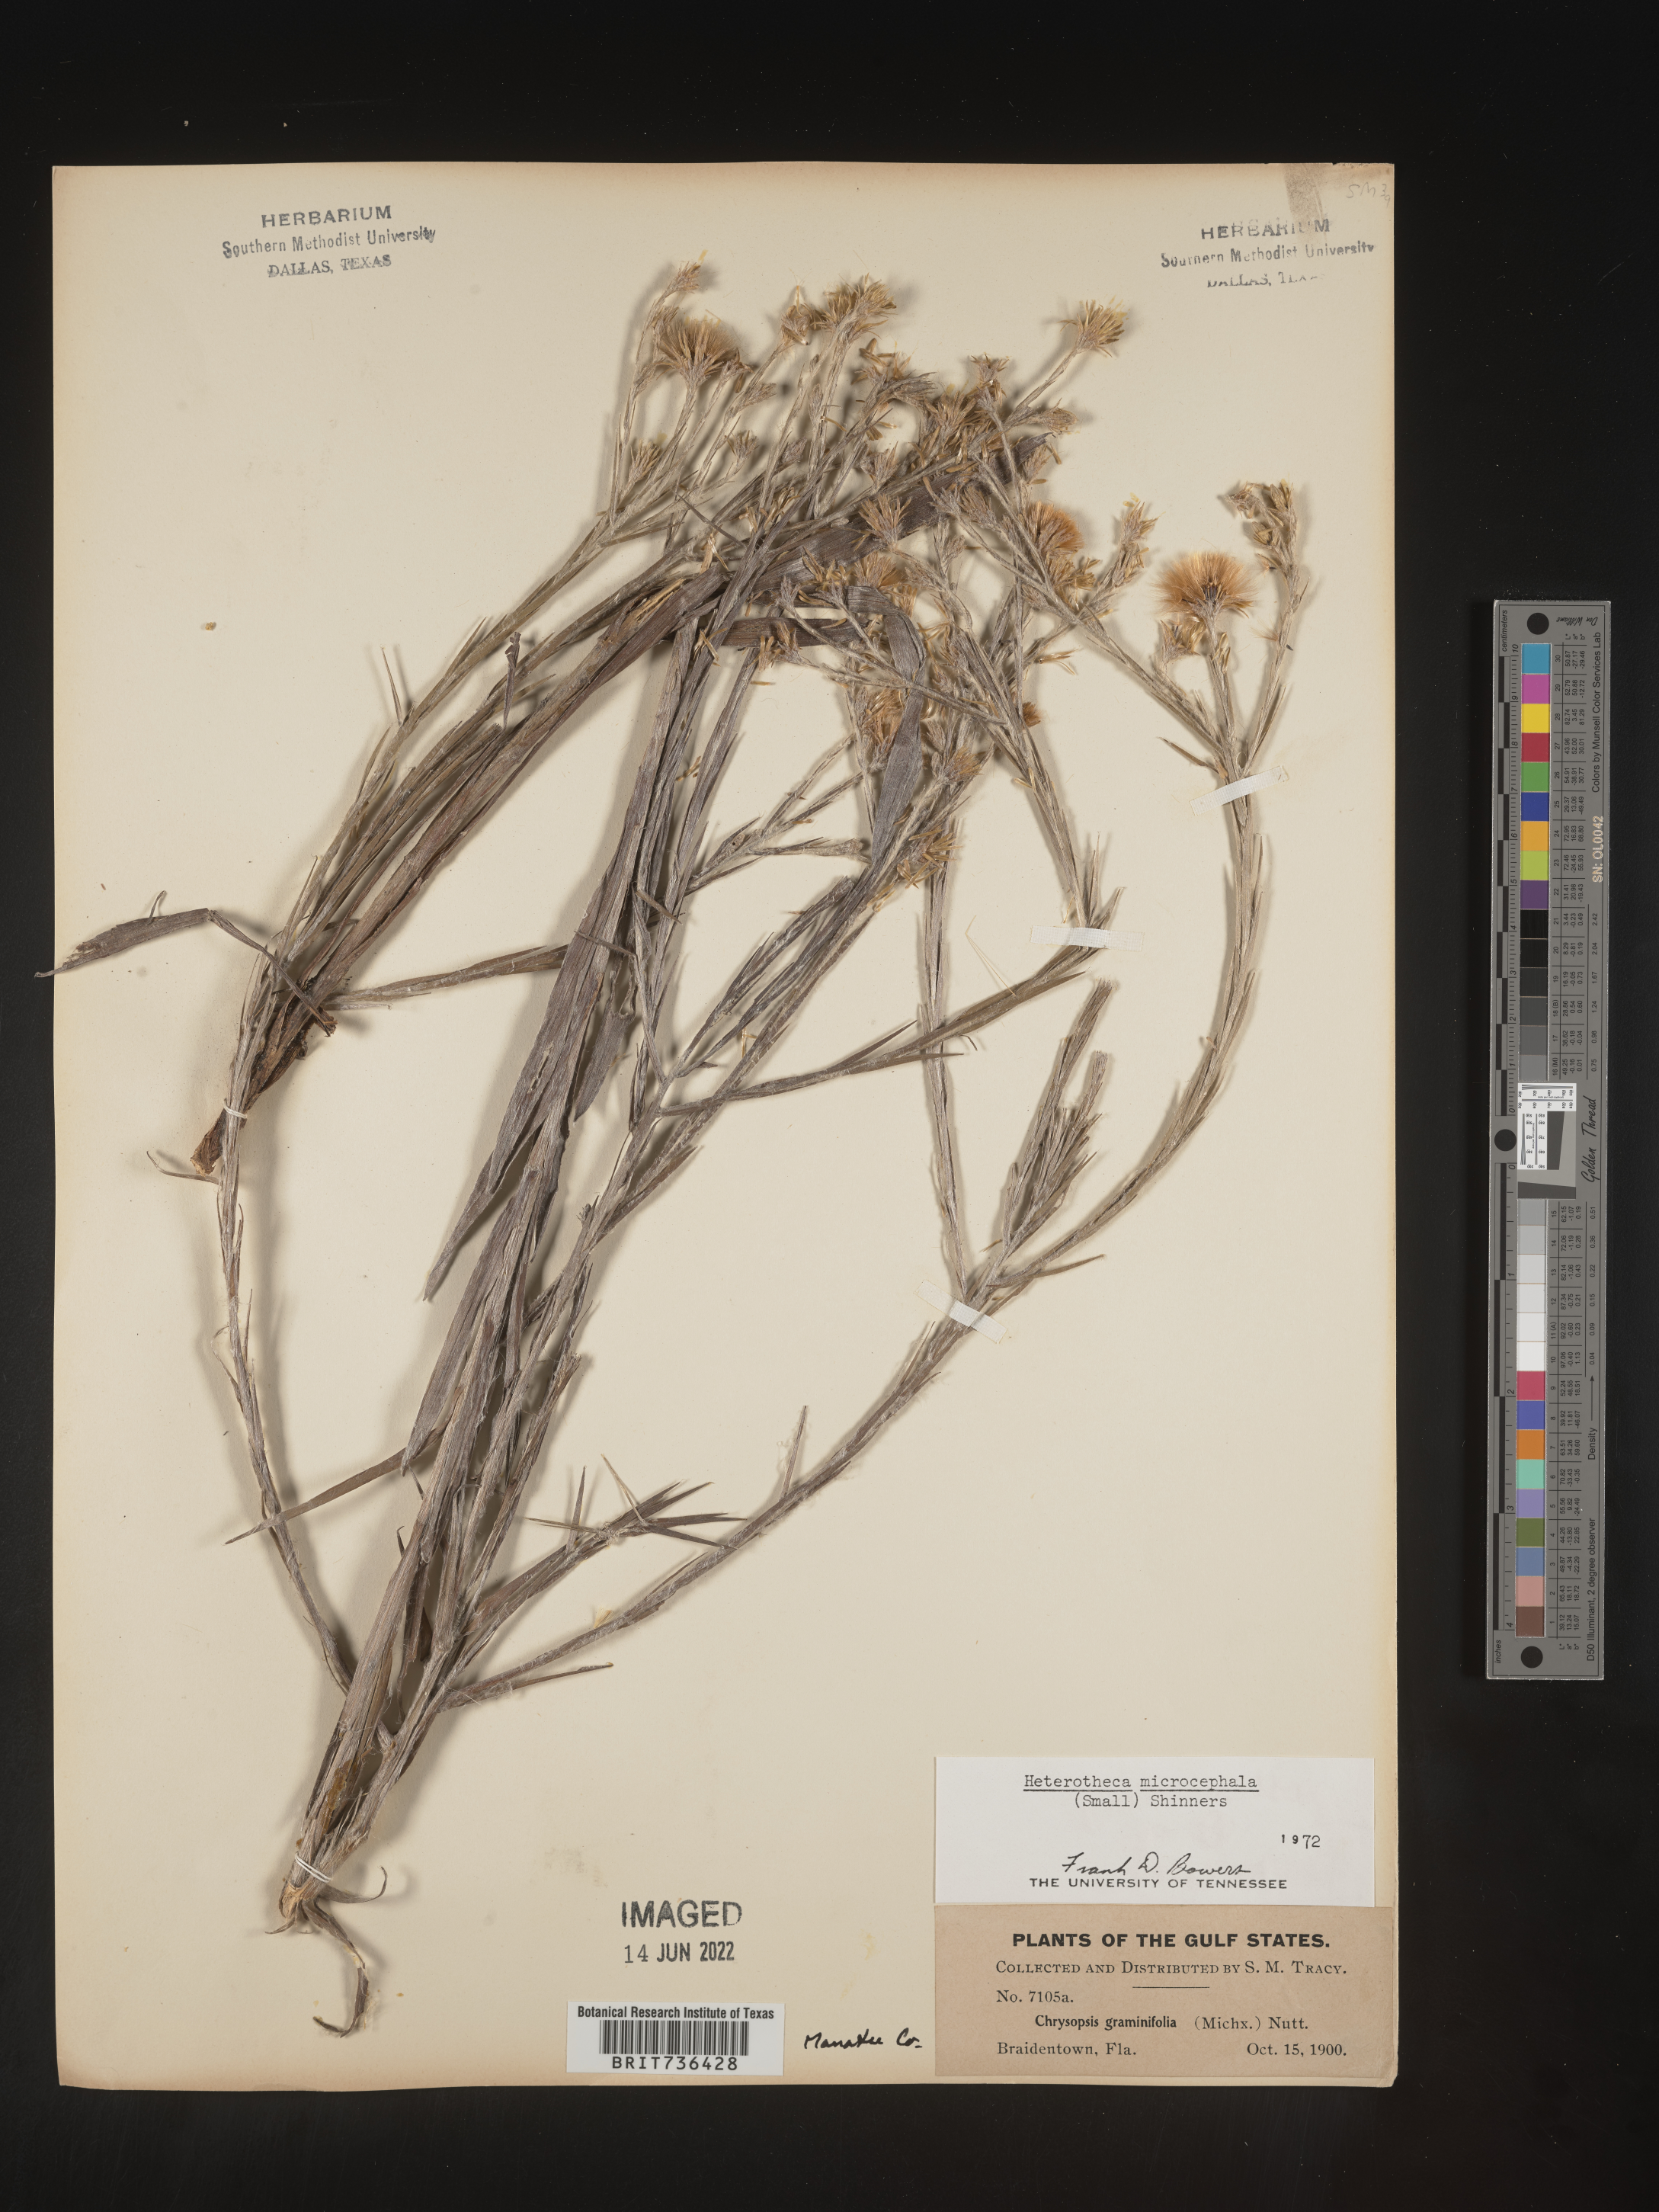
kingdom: Plantae
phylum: Tracheophyta
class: Magnoliopsida
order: Asterales
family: Asteraceae
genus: Pityopsis
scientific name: Pityopsis tracyi
